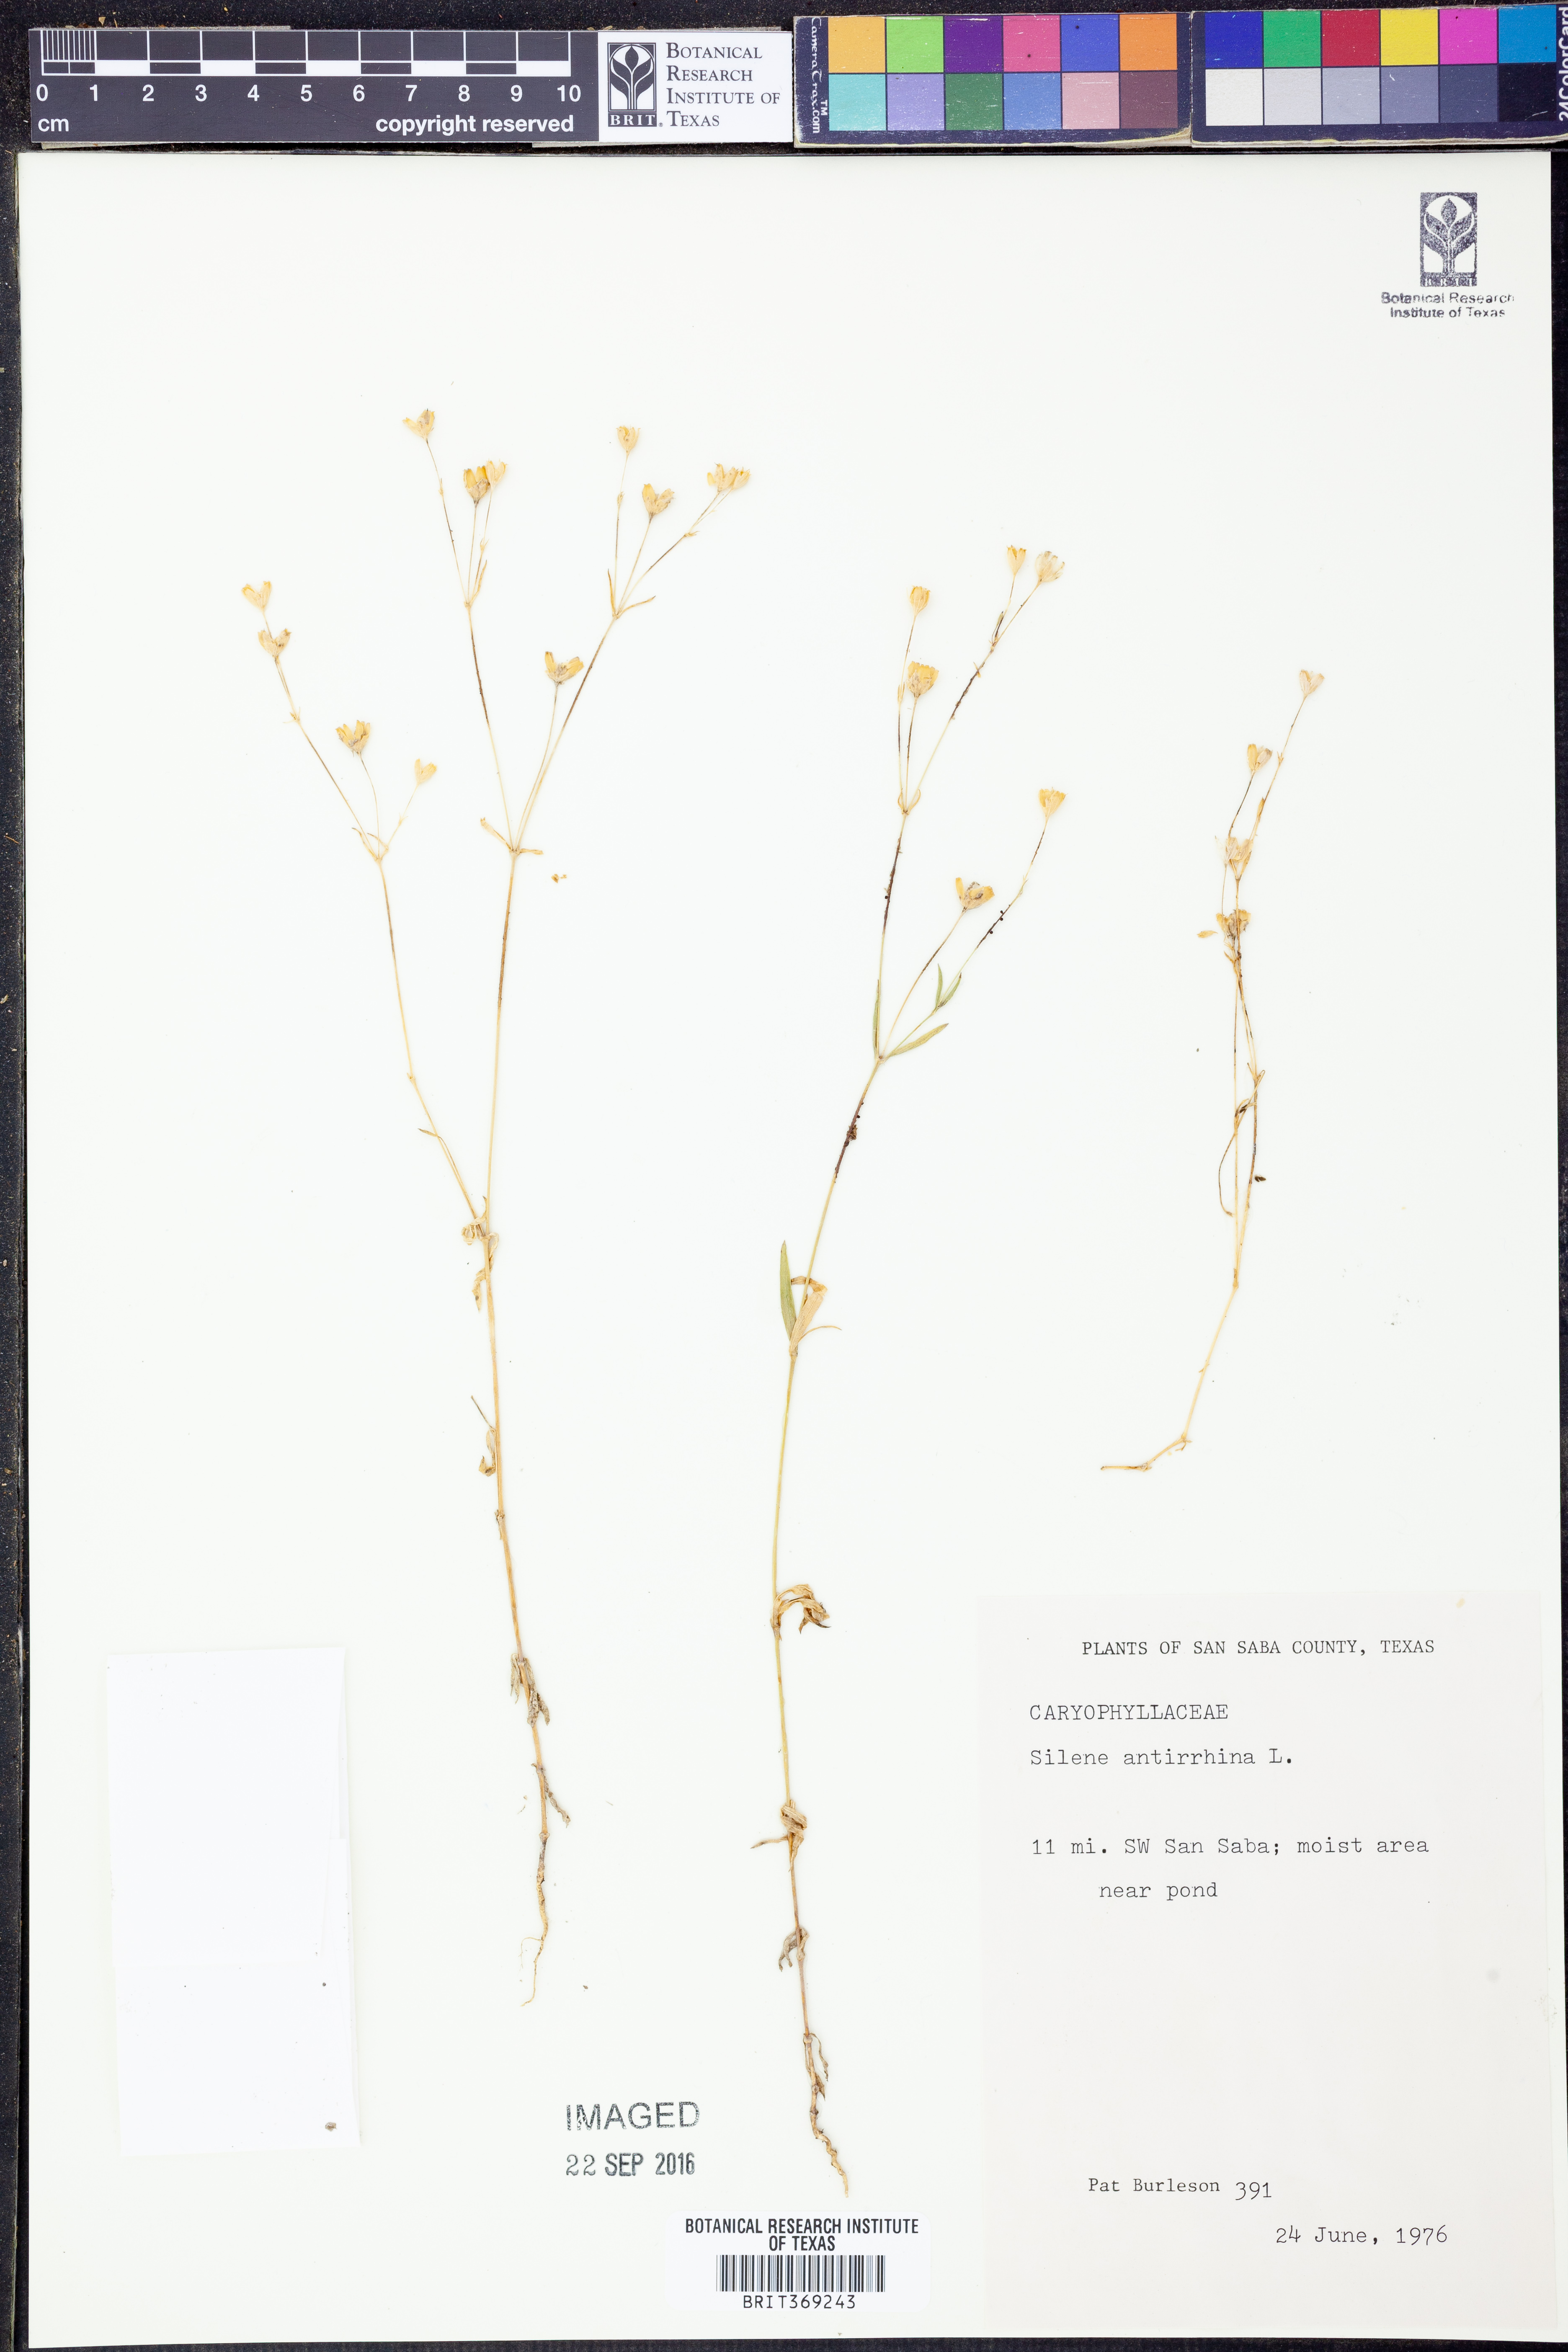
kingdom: Plantae
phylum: Tracheophyta
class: Magnoliopsida
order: Caryophyllales
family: Caryophyllaceae
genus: Silene
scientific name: Silene antirrhina
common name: Sleepy catchfly
